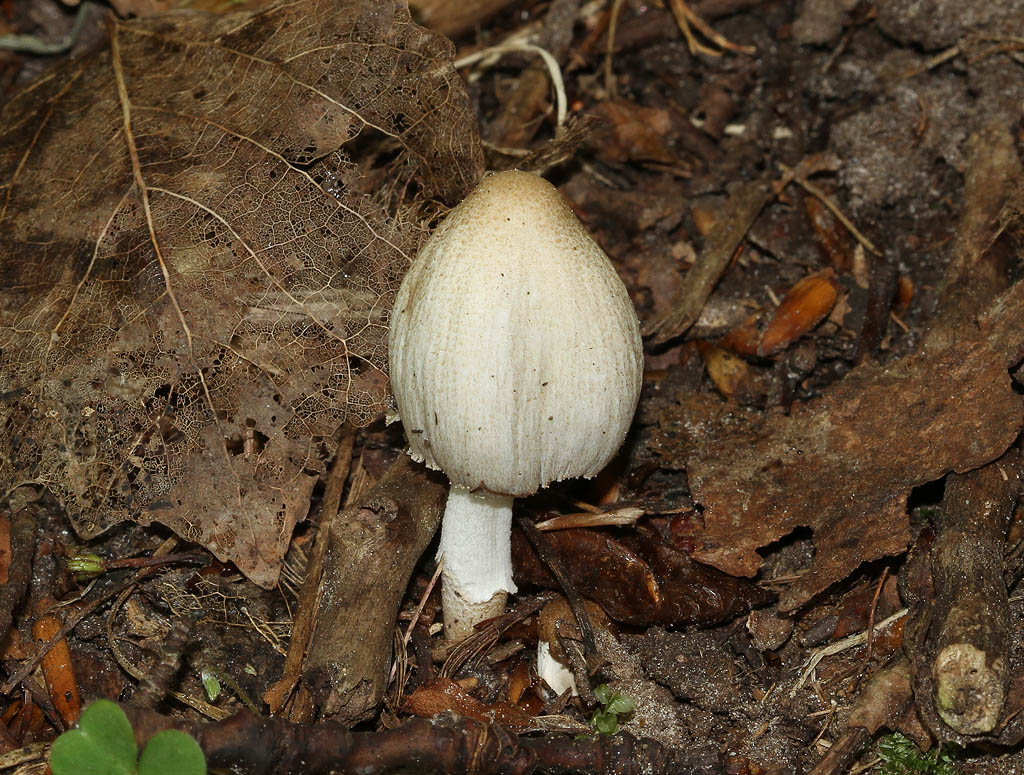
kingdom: Fungi
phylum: Basidiomycota
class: Agaricomycetes
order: Agaricales
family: Psathyrellaceae
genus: Coprinopsis
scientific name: Coprinopsis romagnesiana
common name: brunskællet blækhat
